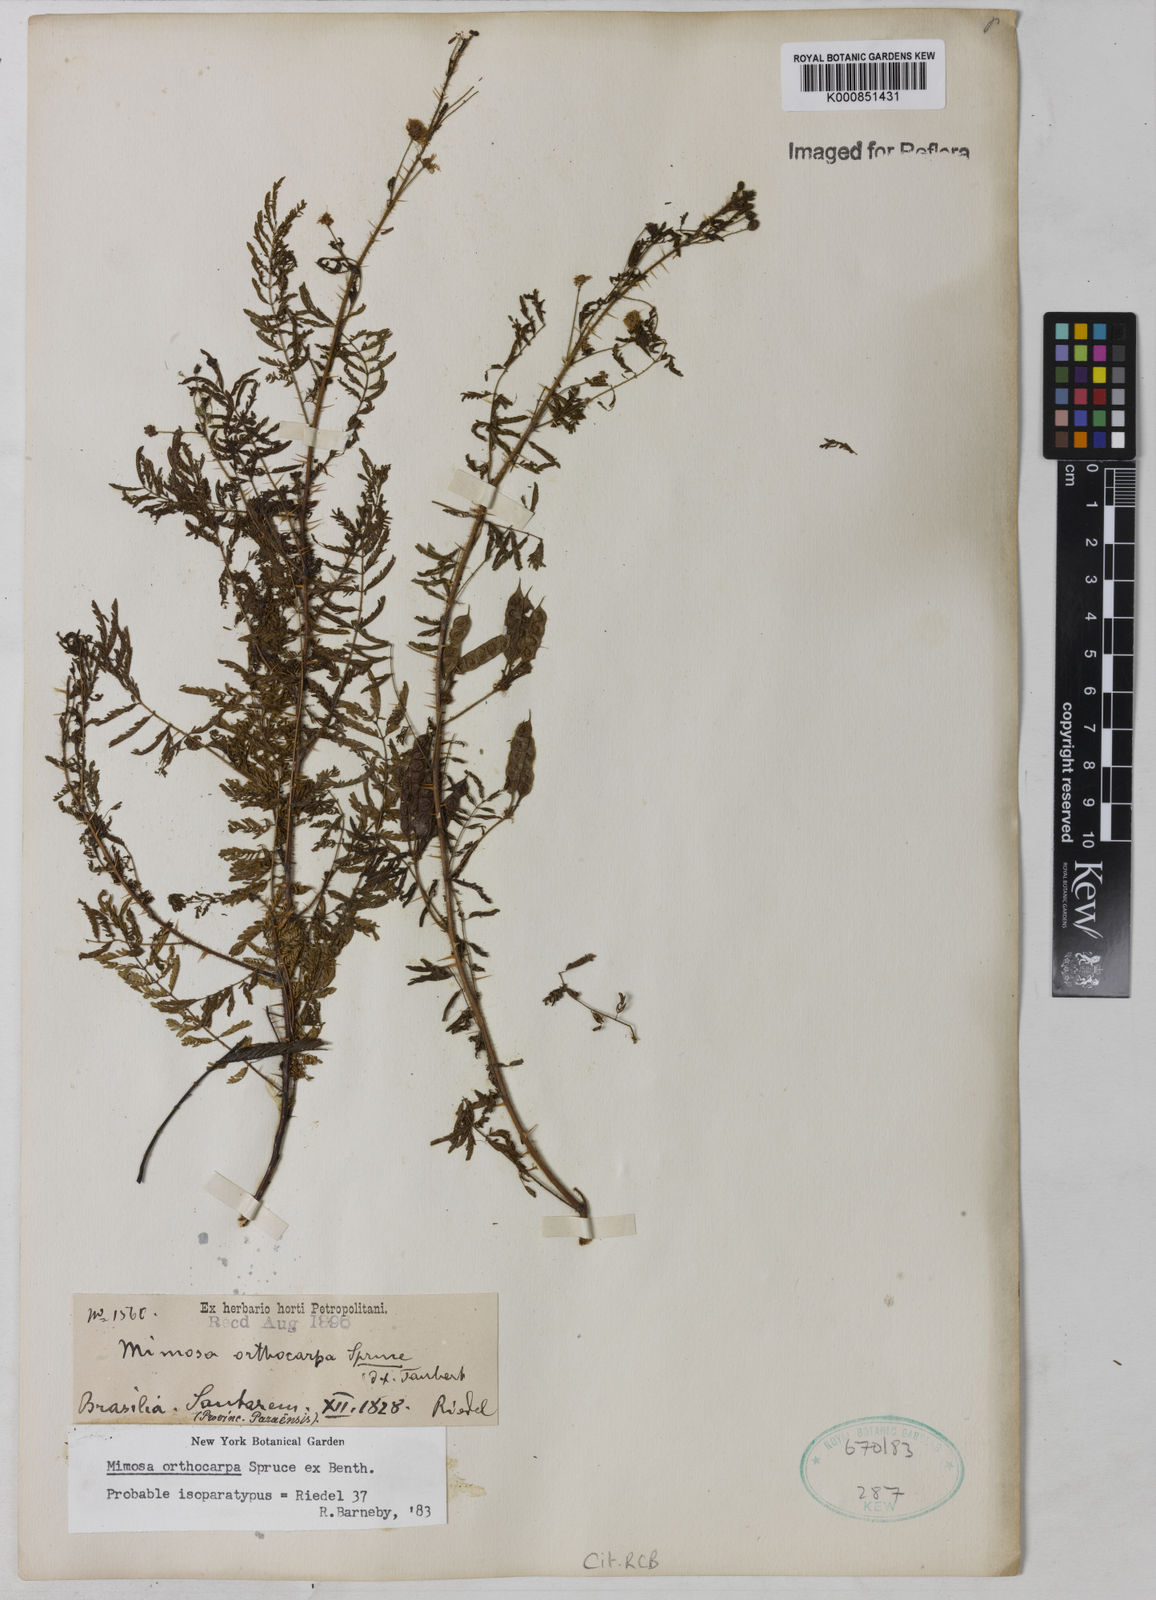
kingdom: Plantae
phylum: Tracheophyta
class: Magnoliopsida
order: Fabales
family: Fabaceae
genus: Mimosa
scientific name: Mimosa
